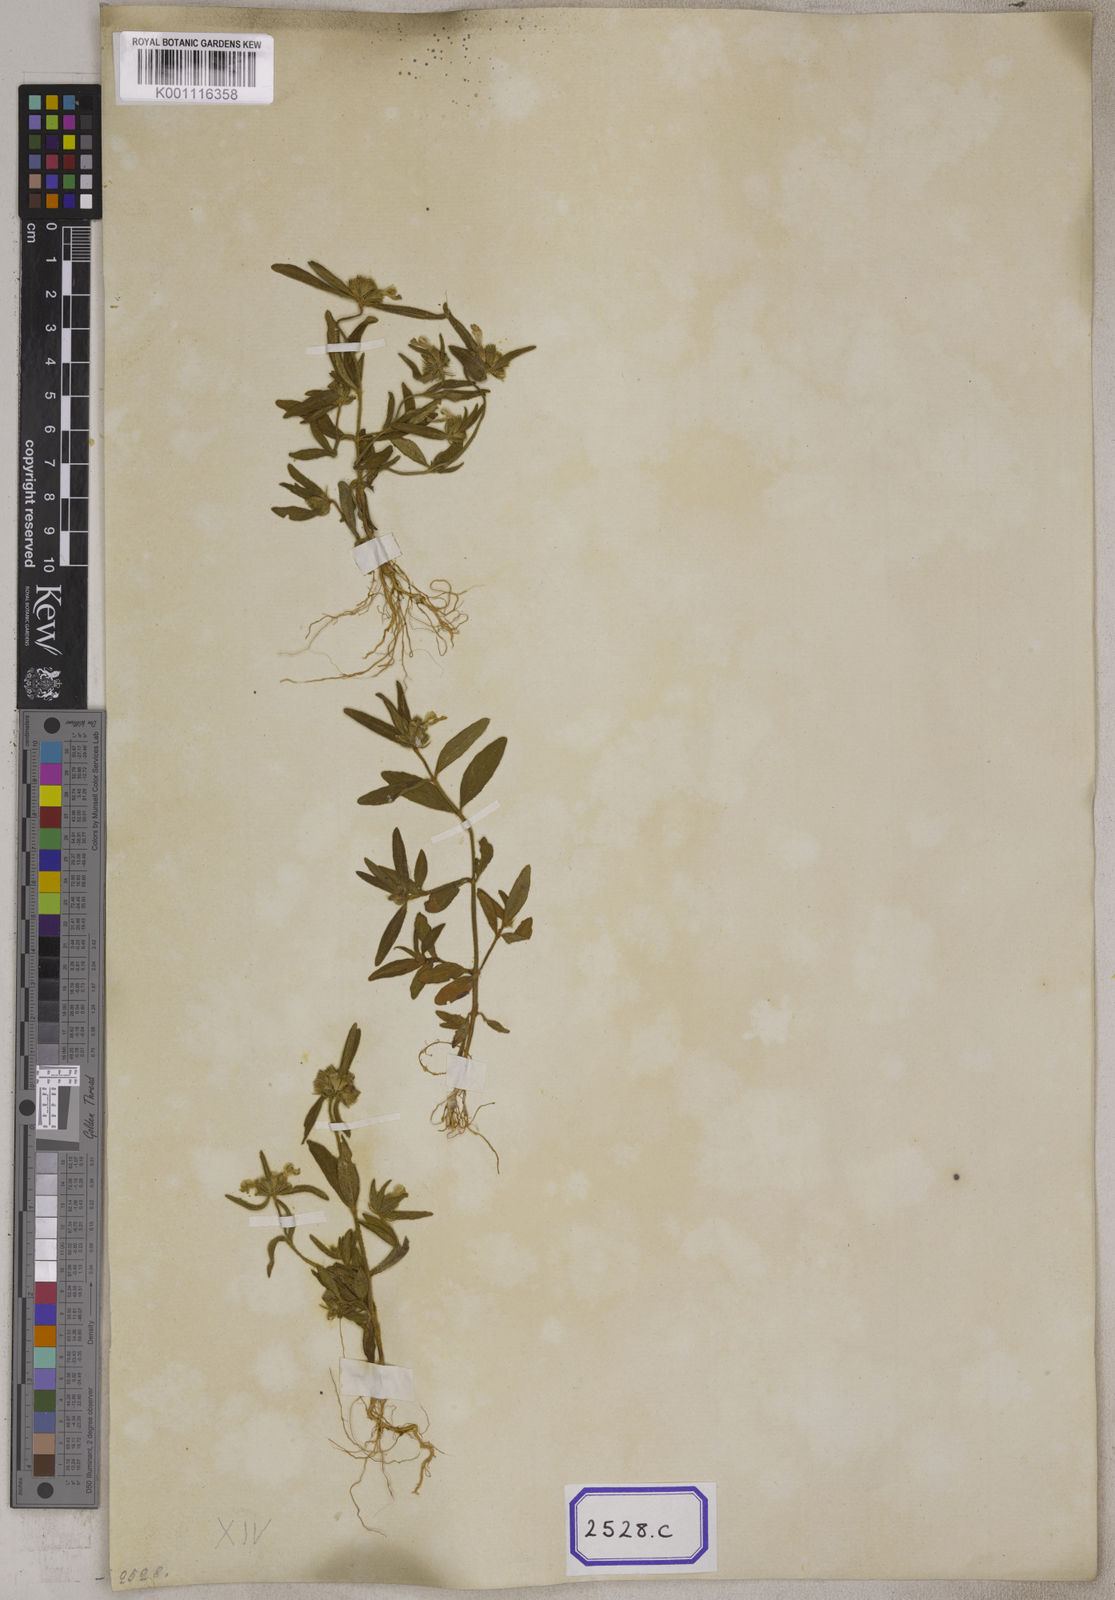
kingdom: Plantae
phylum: Tracheophyta
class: Magnoliopsida
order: Lamiales
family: Lamiaceae
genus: Leucas
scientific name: Leucas aspera
